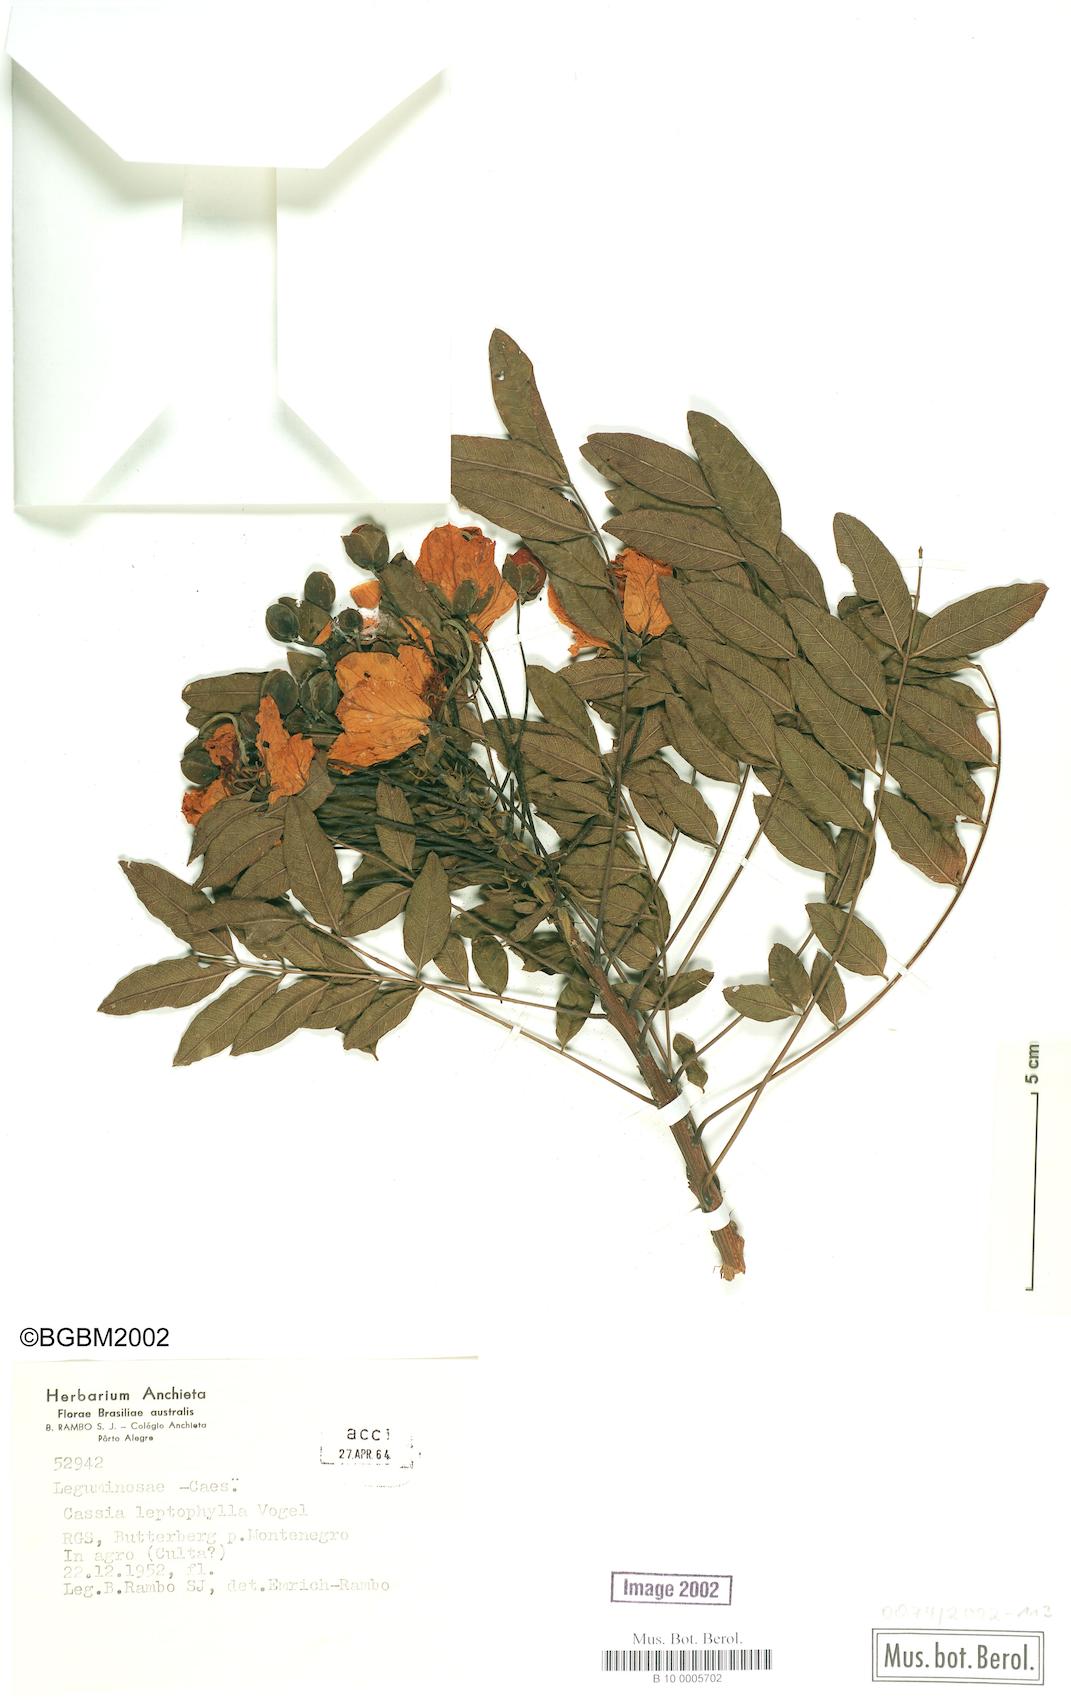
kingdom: Plantae
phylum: Tracheophyta
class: Magnoliopsida
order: Fabales
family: Fabaceae
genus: Cassia
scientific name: Cassia leptophylla
